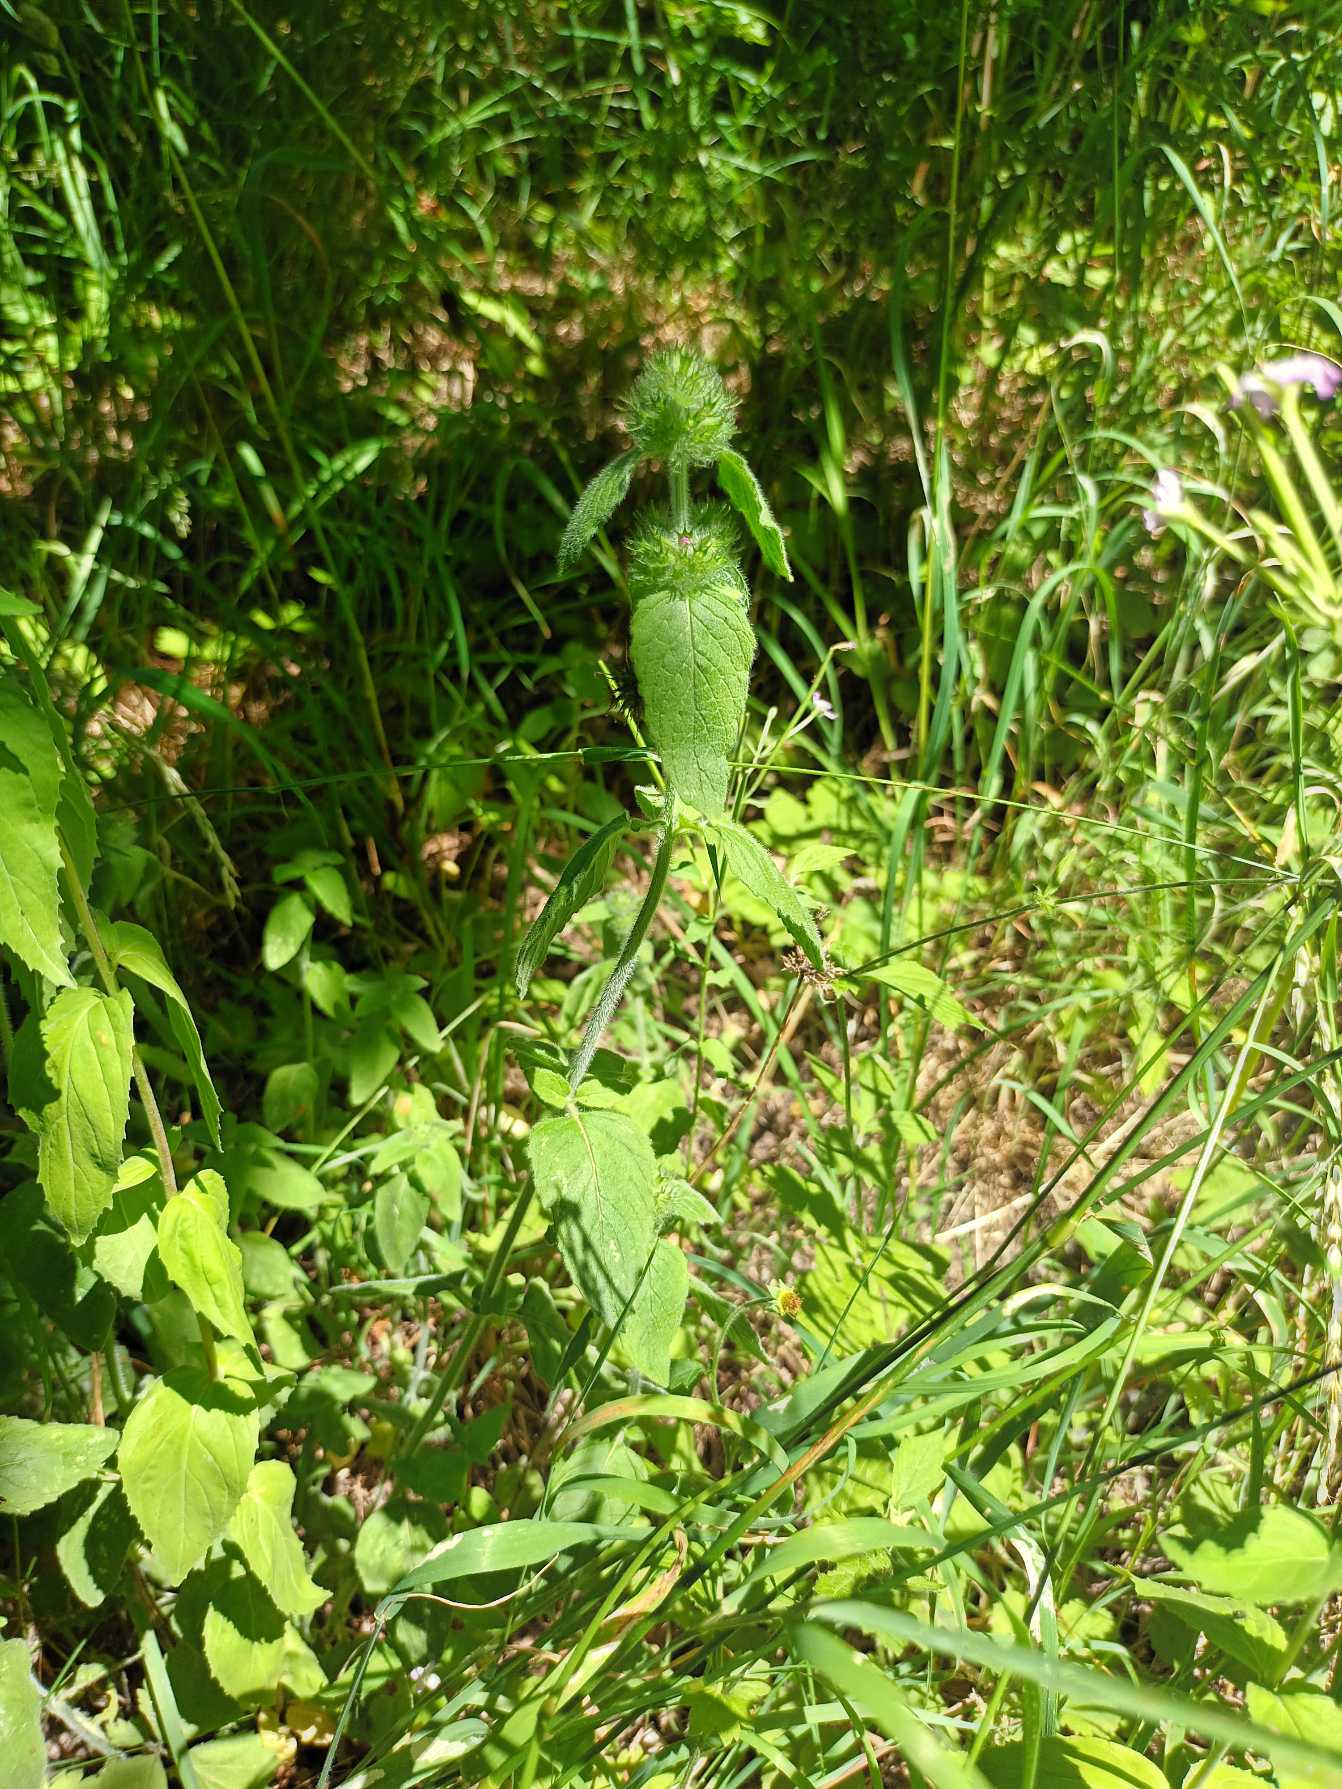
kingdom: Plantae
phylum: Tracheophyta
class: Magnoliopsida
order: Lamiales
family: Lamiaceae
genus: Clinopodium
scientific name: Clinopodium vulgare
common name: Kransbørste
